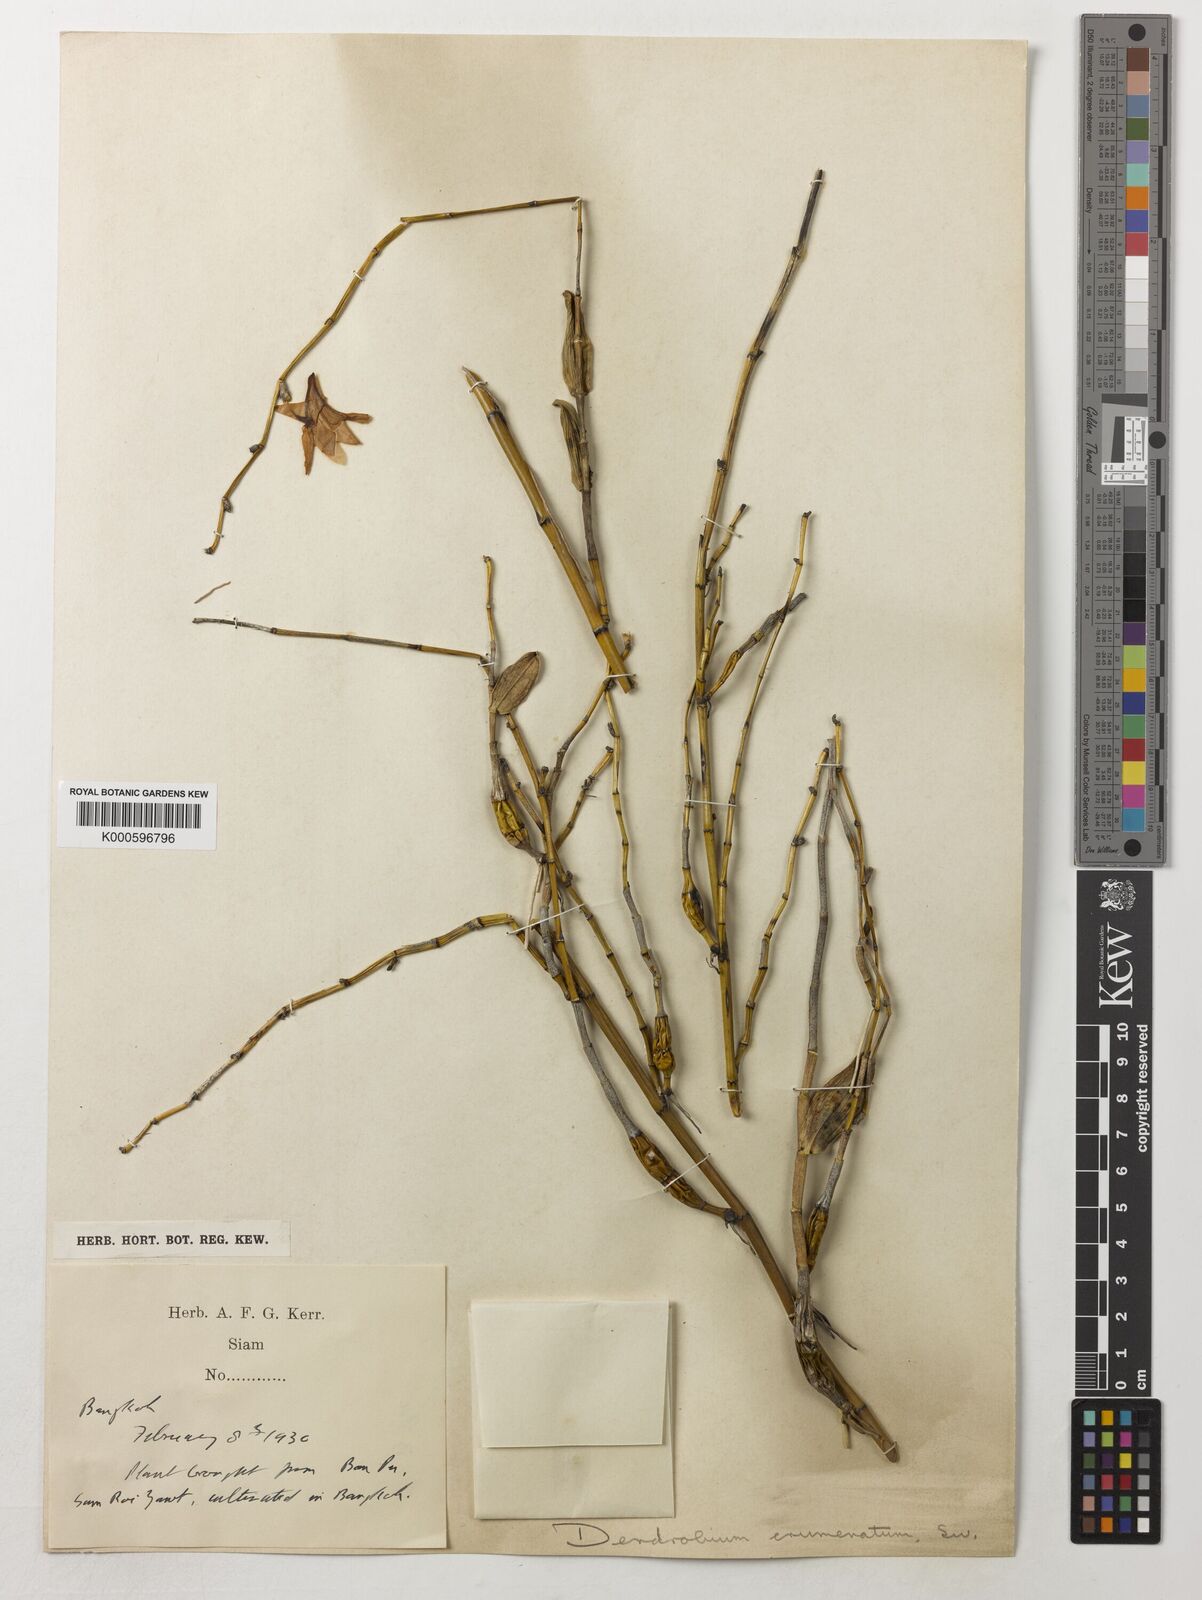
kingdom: Plantae
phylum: Tracheophyta
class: Liliopsida
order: Asparagales
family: Orchidaceae
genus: Dendrobium
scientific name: Dendrobium crumenatum
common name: Orchid
